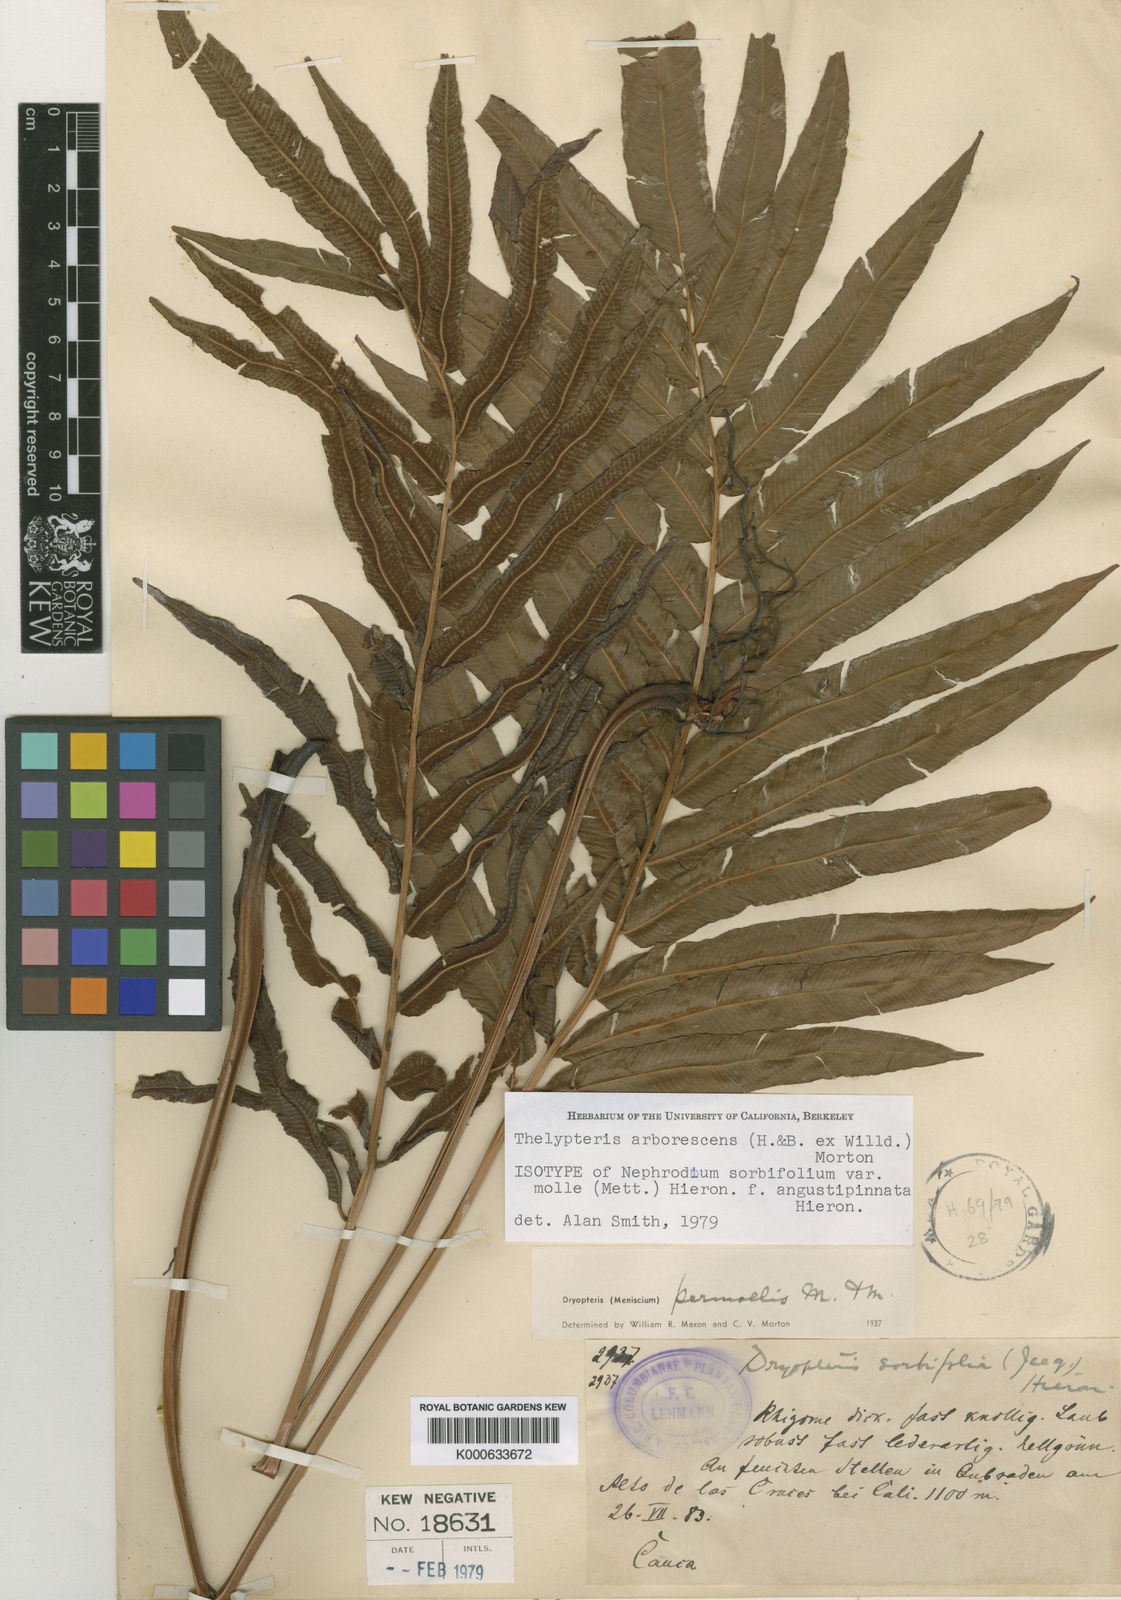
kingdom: Plantae
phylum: Tracheophyta
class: Polypodiopsida
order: Polypodiales
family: Thelypteridaceae
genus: Meniscium
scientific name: Meniscium arborescens
